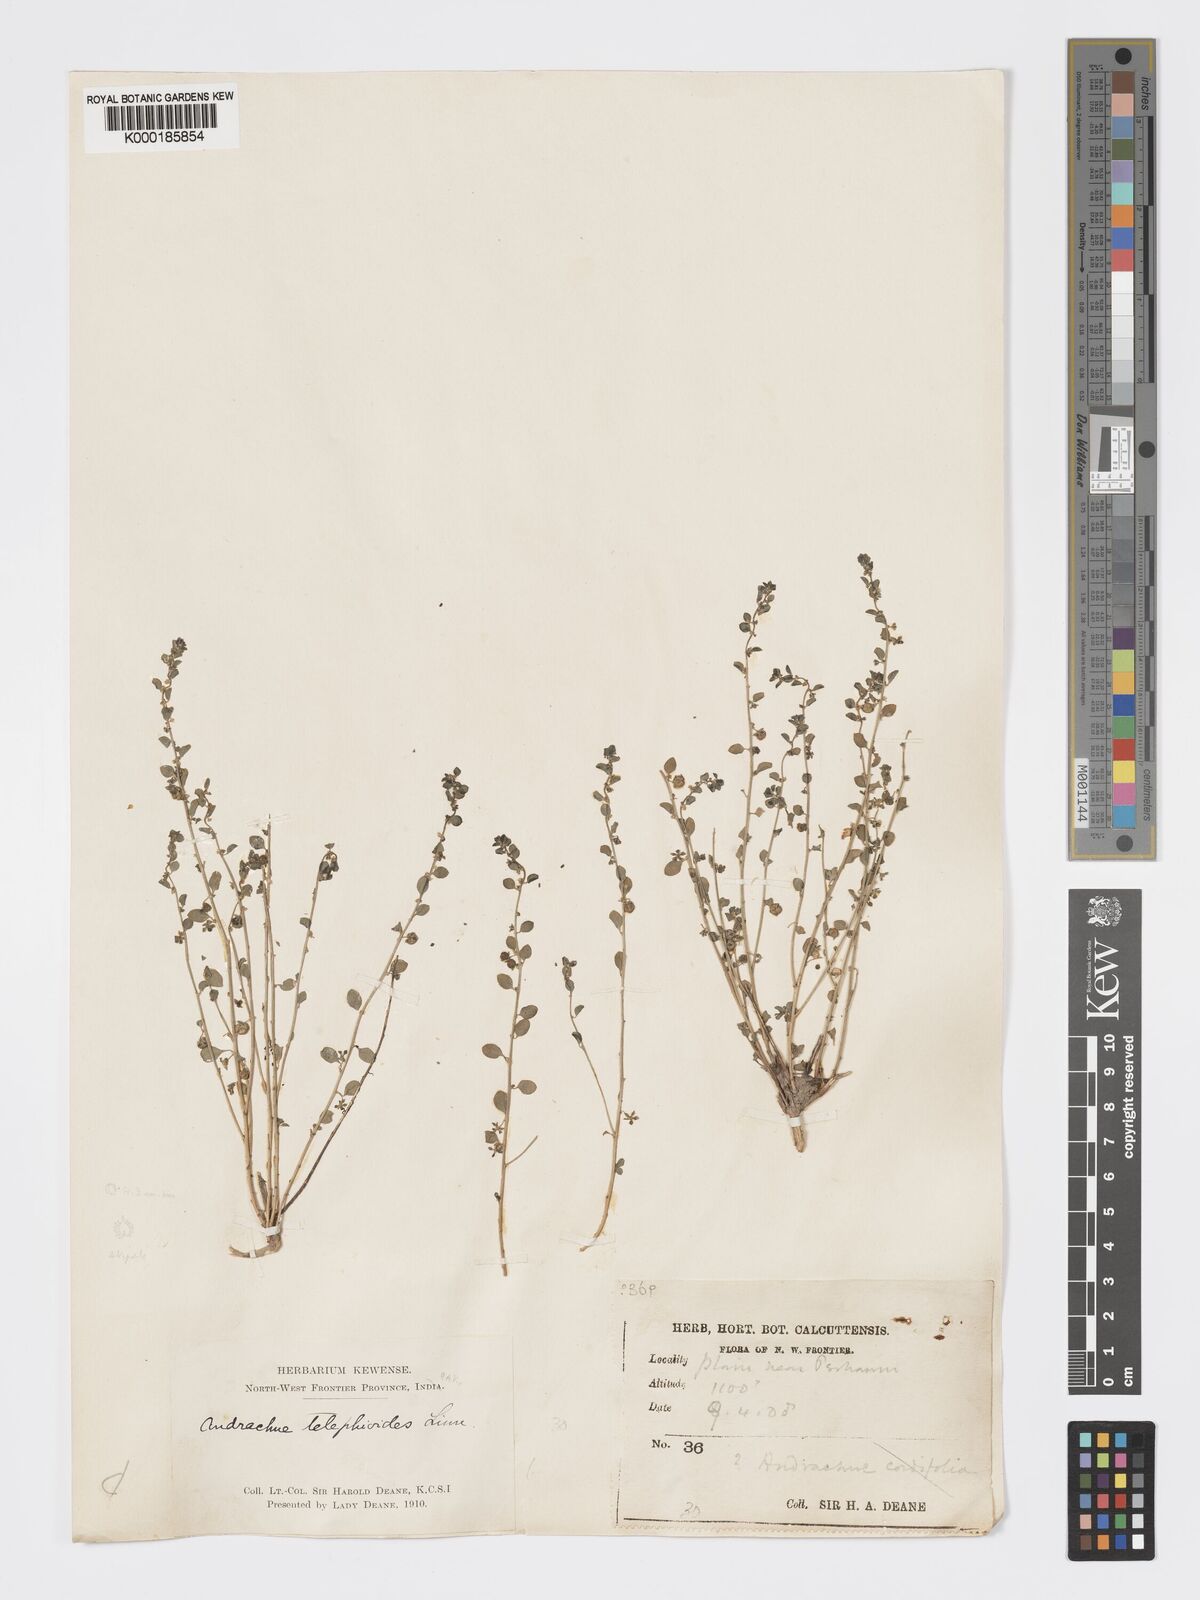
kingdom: Plantae
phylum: Tracheophyta
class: Magnoliopsida
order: Malpighiales
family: Phyllanthaceae
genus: Andrachne
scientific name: Andrachne telephioides
